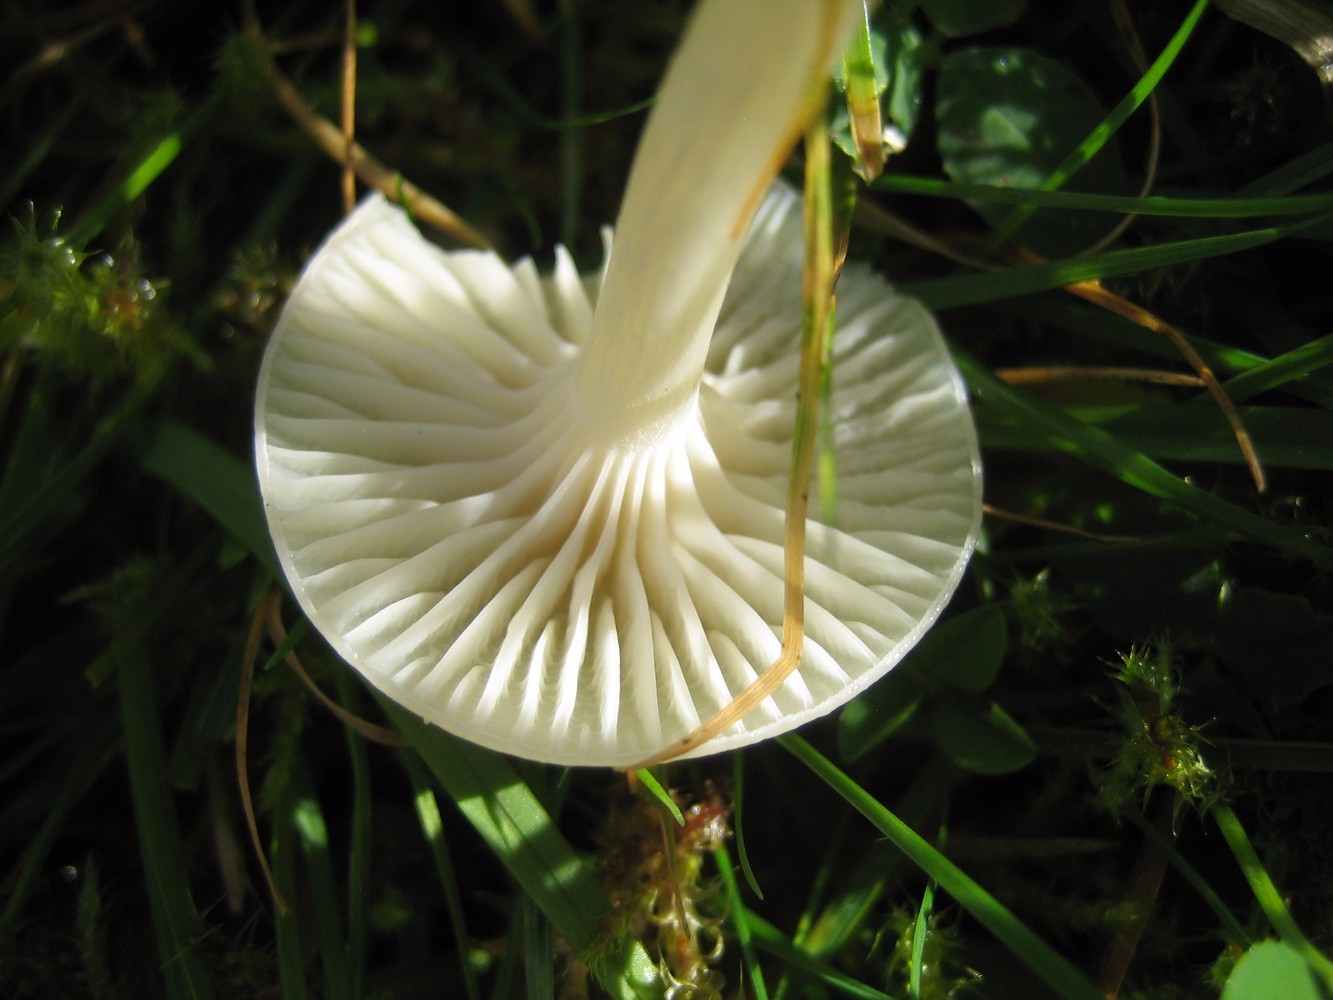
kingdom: Fungi
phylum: Basidiomycota
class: Agaricomycetes
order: Agaricales
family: Hygrophoraceae
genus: Cuphophyllus
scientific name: Cuphophyllus virgineus
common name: snehvid vokshat
